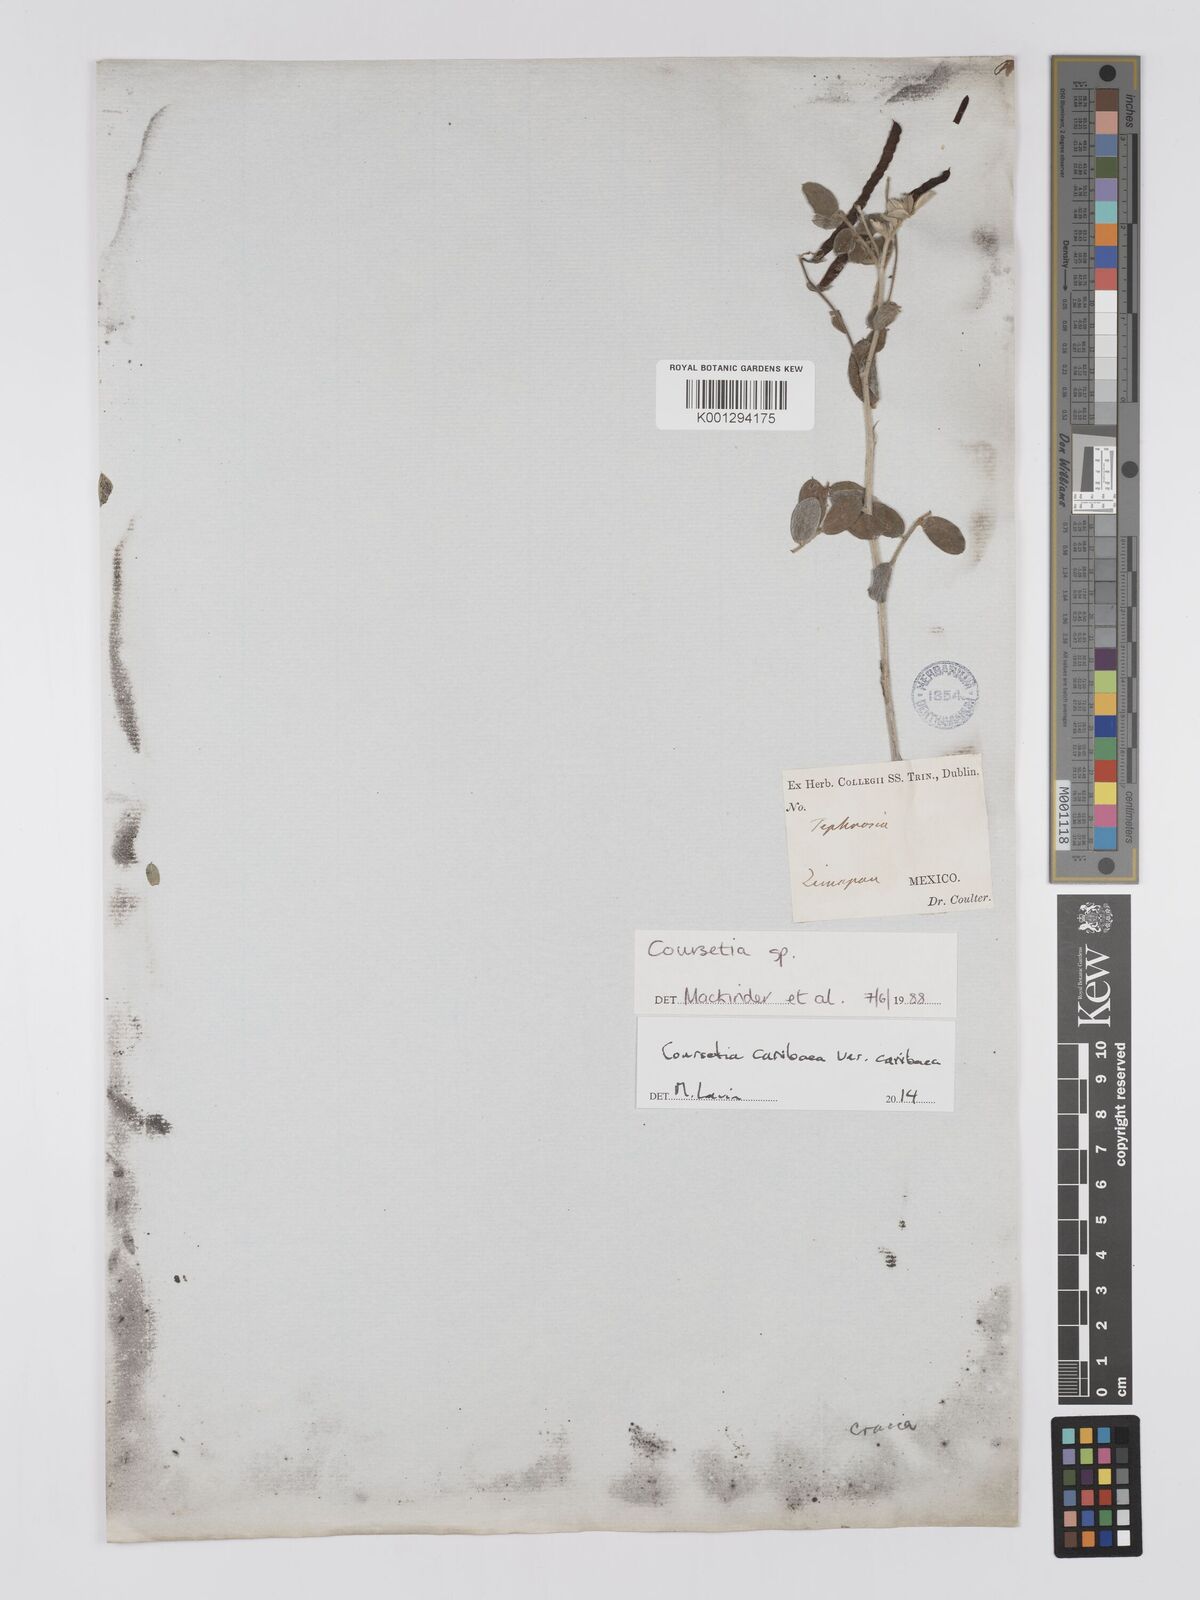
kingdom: Plantae
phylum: Tracheophyta
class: Magnoliopsida
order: Fabales
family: Fabaceae
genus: Coursetia
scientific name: Coursetia
